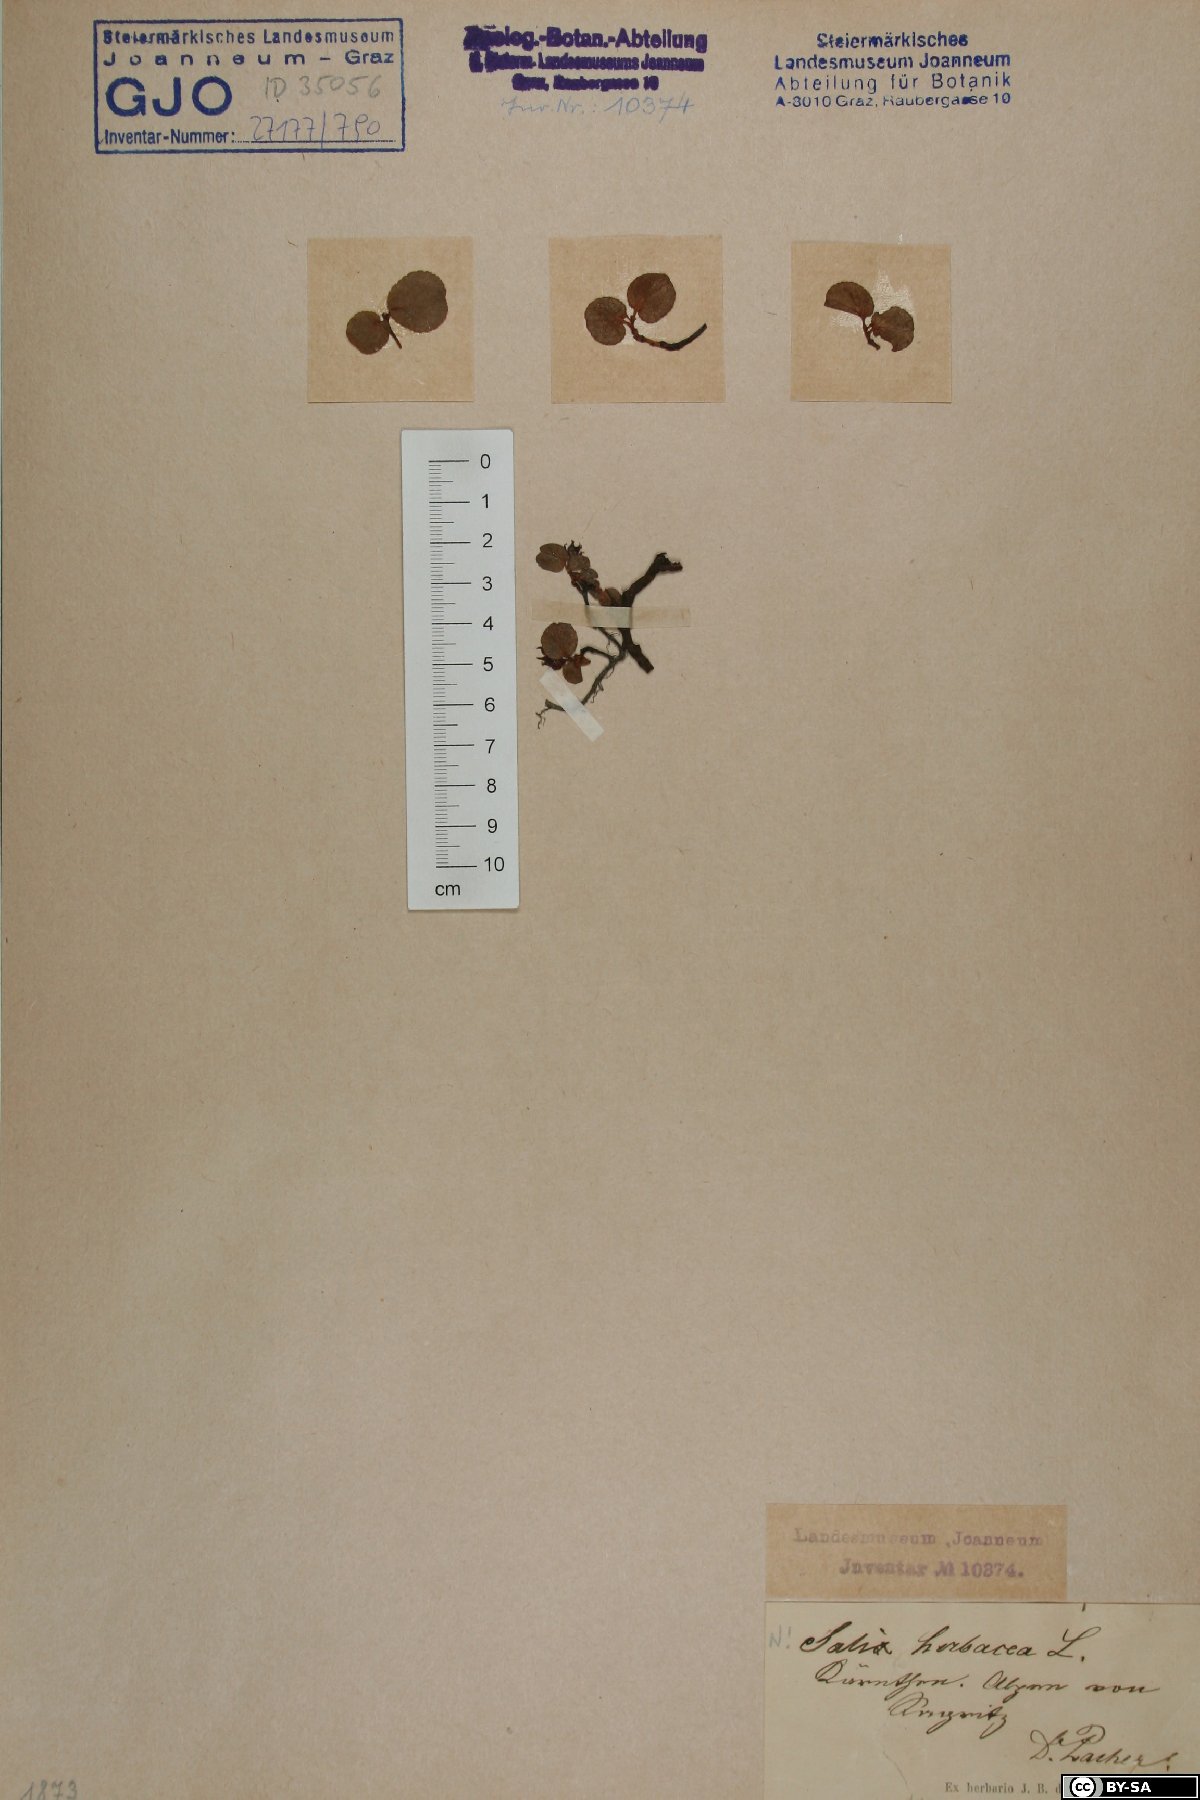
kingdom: Plantae
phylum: Tracheophyta
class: Magnoliopsida
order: Malpighiales
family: Salicaceae
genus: Salix
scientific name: Salix herbacea
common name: Dwarf willow
